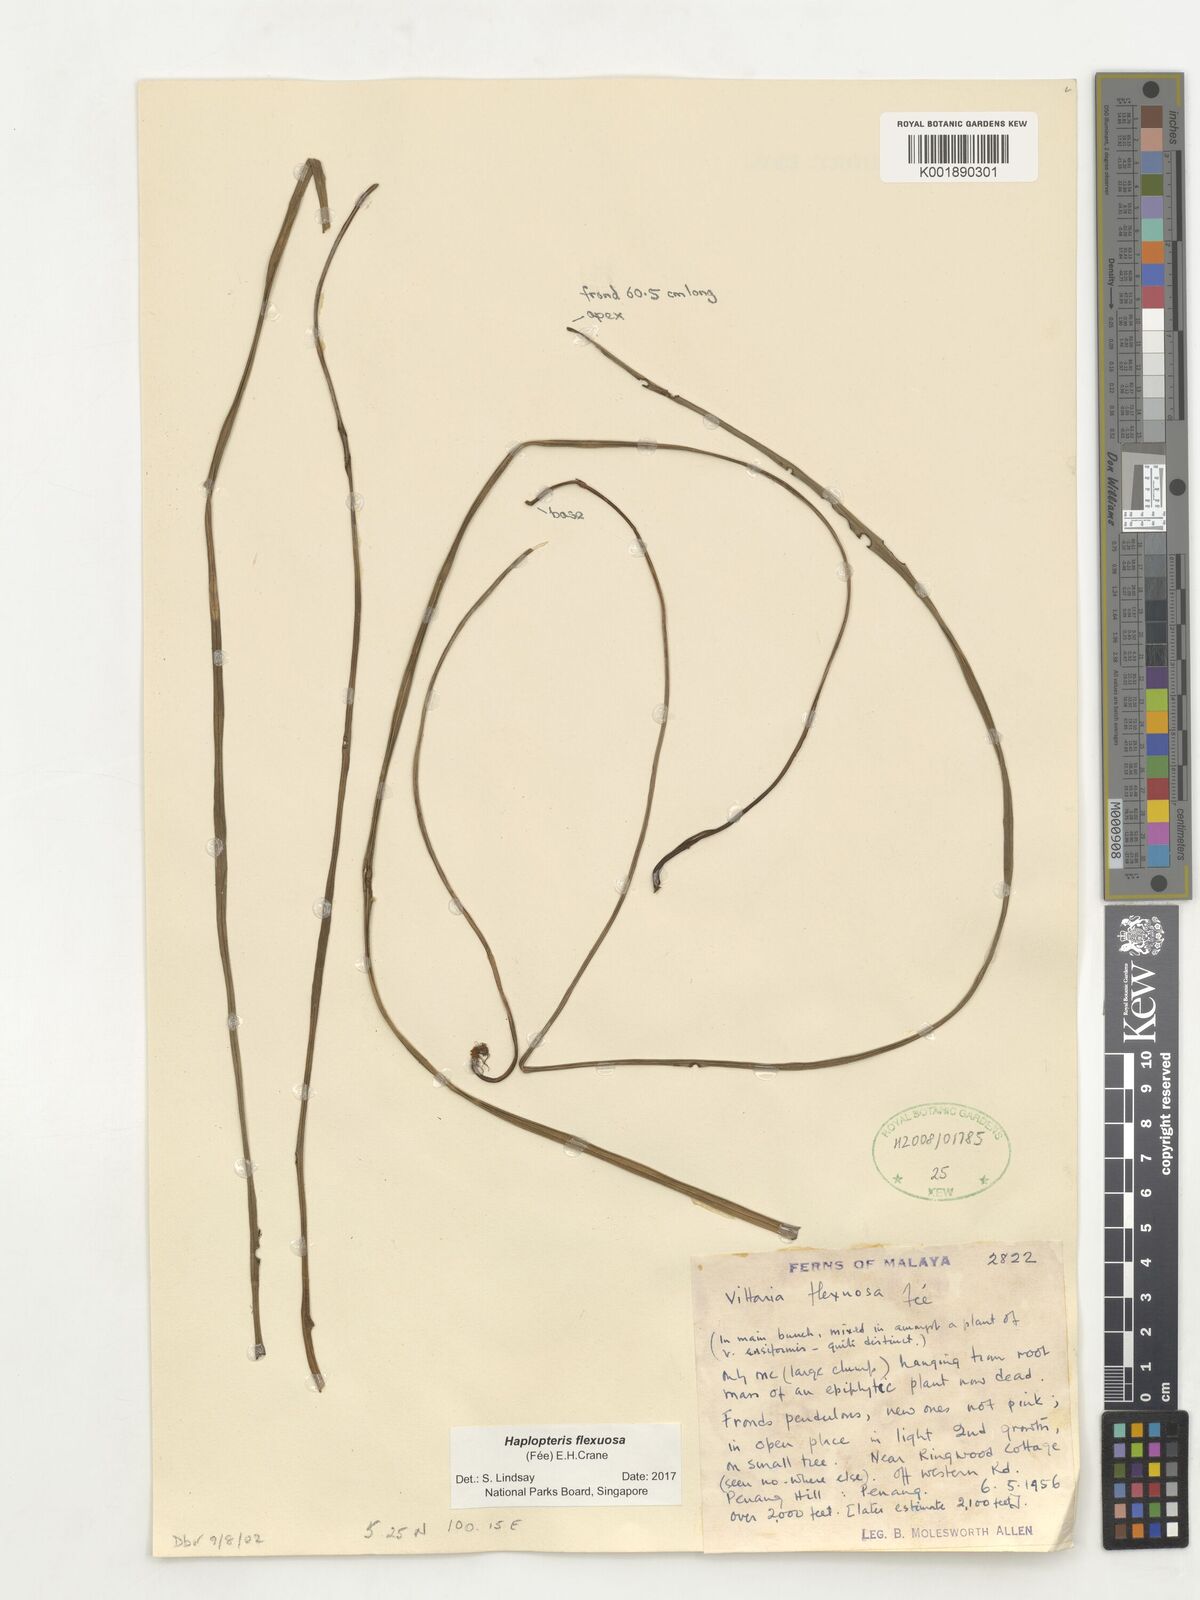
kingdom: Plantae
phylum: Tracheophyta
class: Polypodiopsida
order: Polypodiales
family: Pteridaceae
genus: Haplopteris
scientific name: Haplopteris flexuosa
